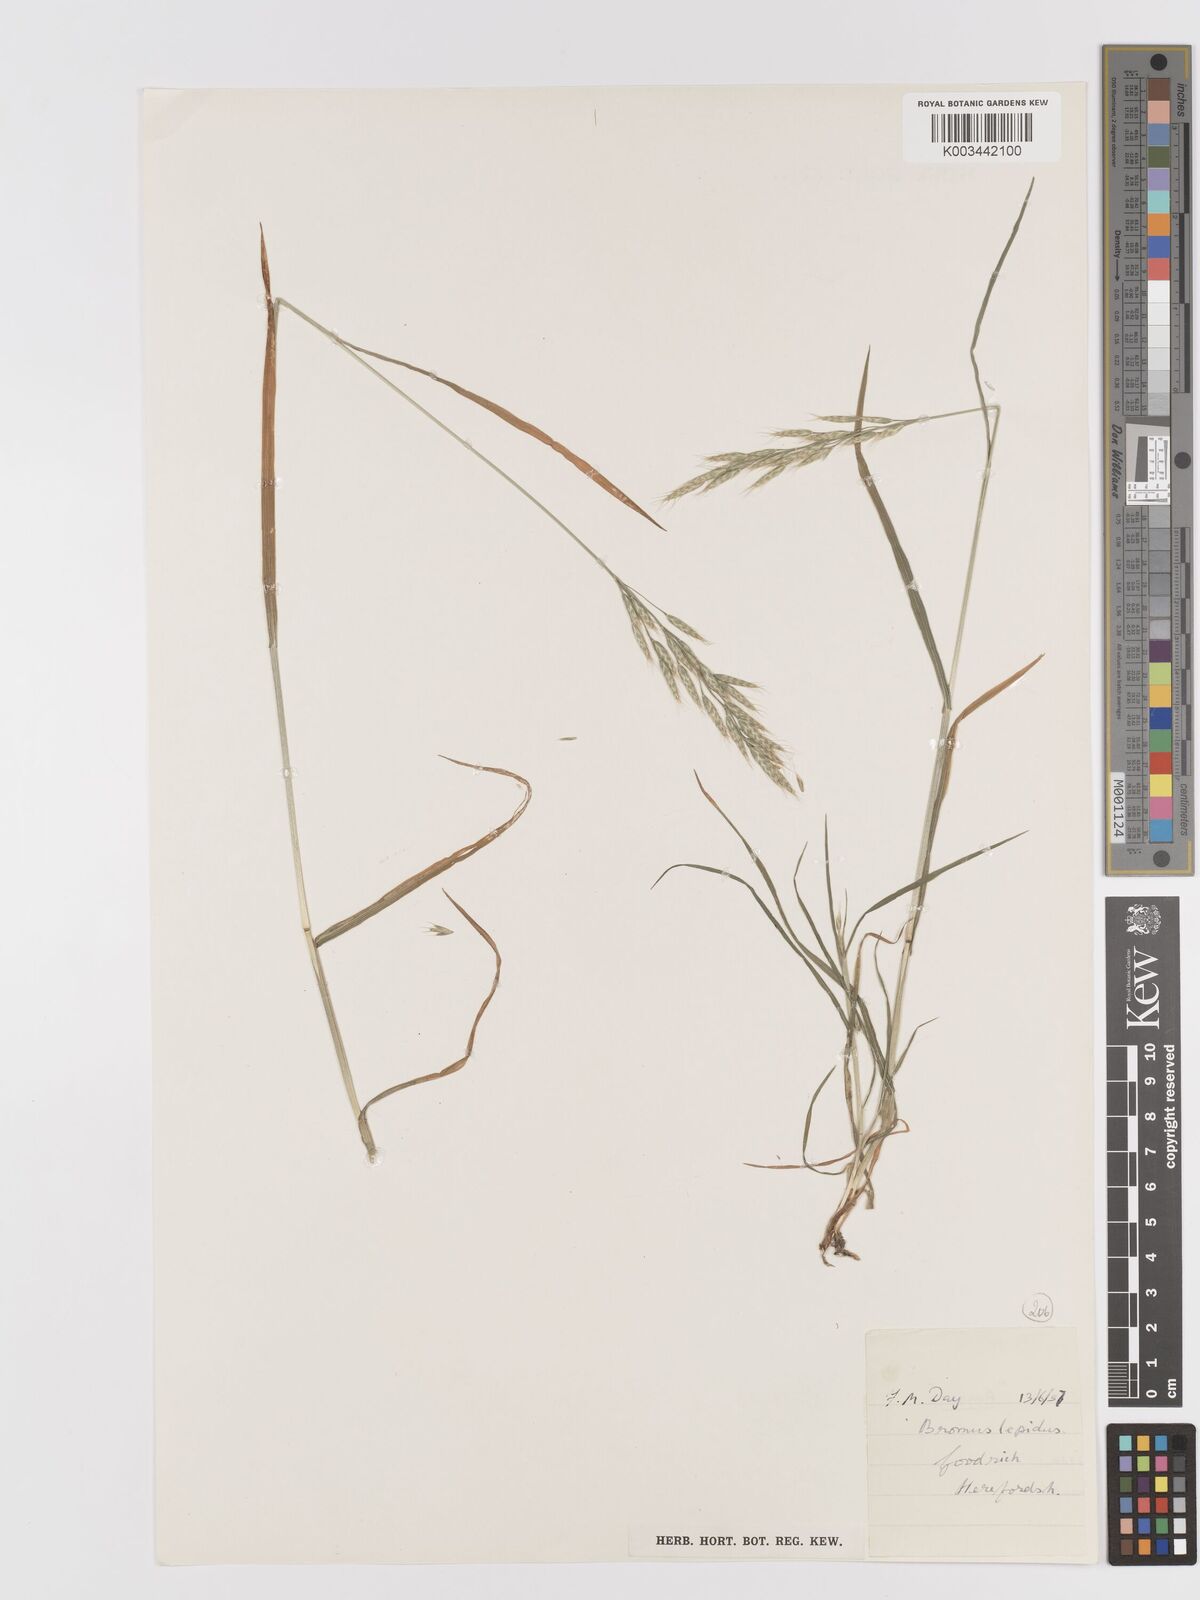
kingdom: Plantae
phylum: Tracheophyta
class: Liliopsida
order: Poales
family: Poaceae
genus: Bromus
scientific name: Bromus lepidus
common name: Slender soft-brome
